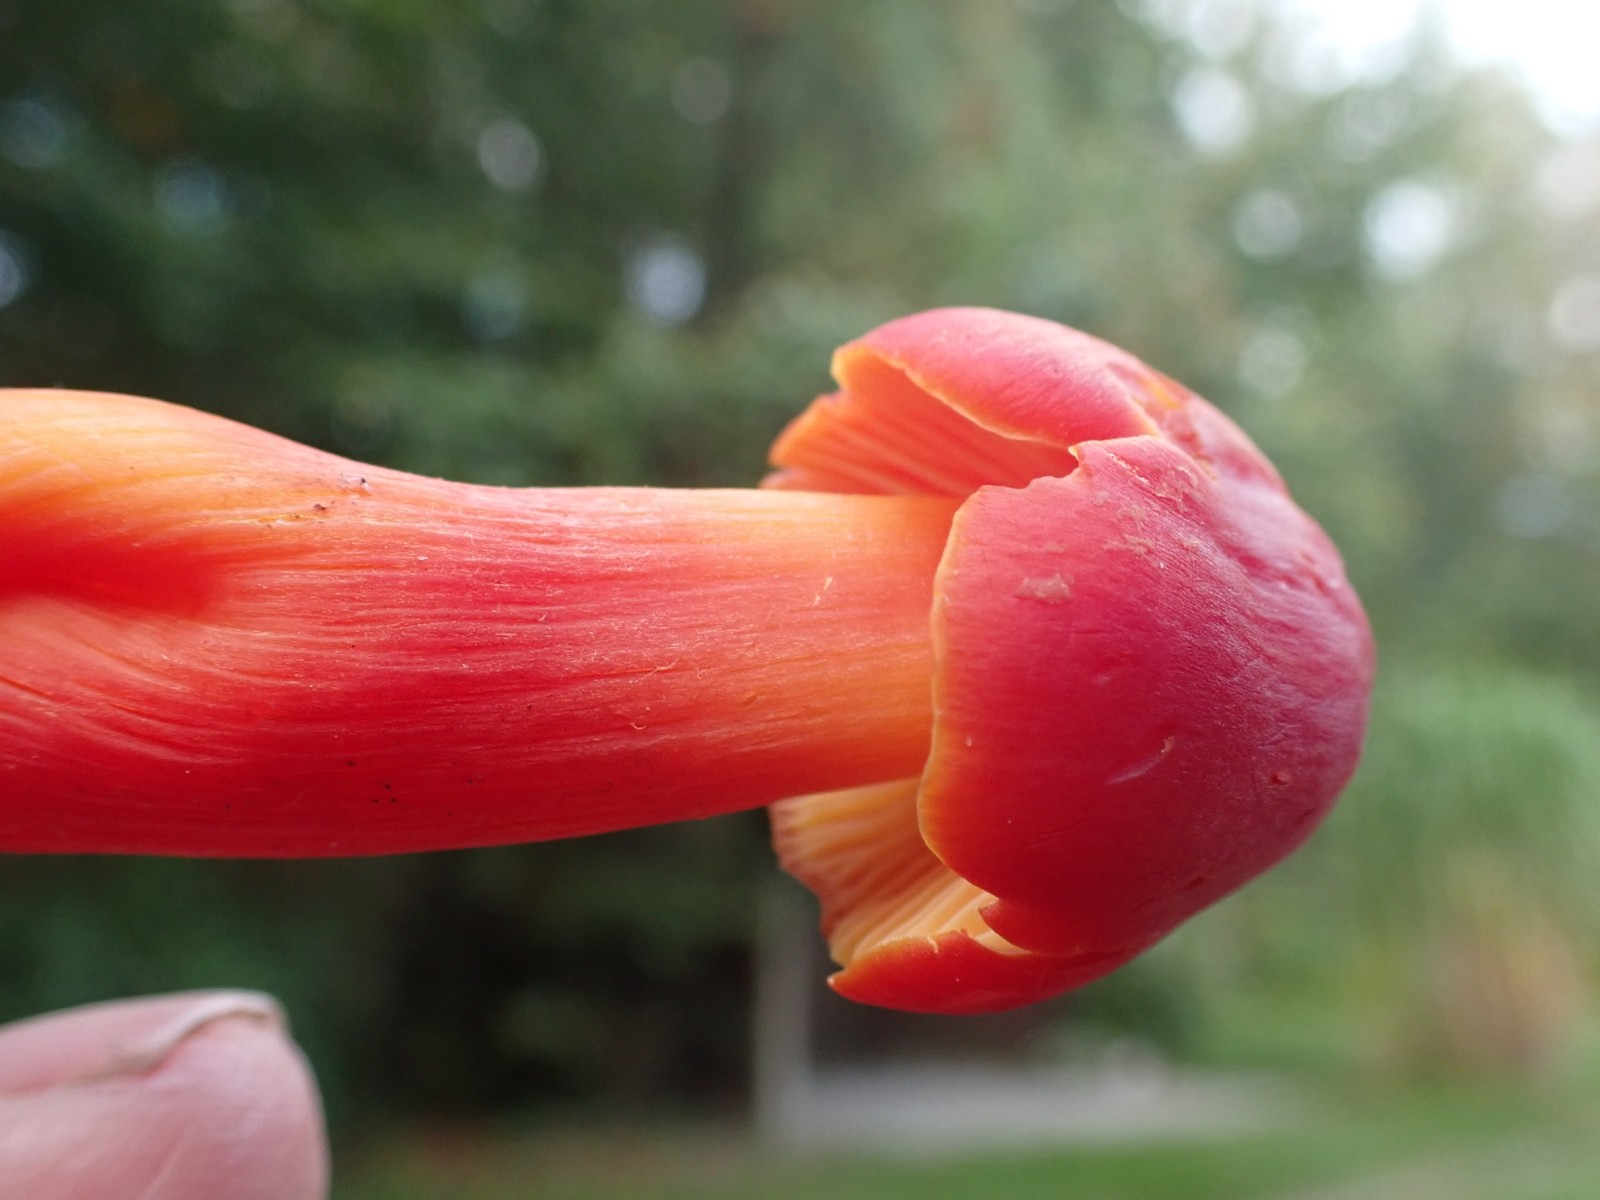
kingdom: Fungi
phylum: Basidiomycota
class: Agaricomycetes
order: Agaricales
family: Hygrophoraceae
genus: Hygrocybe
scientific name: Hygrocybe splendidissima
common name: knaldrød vokshat
